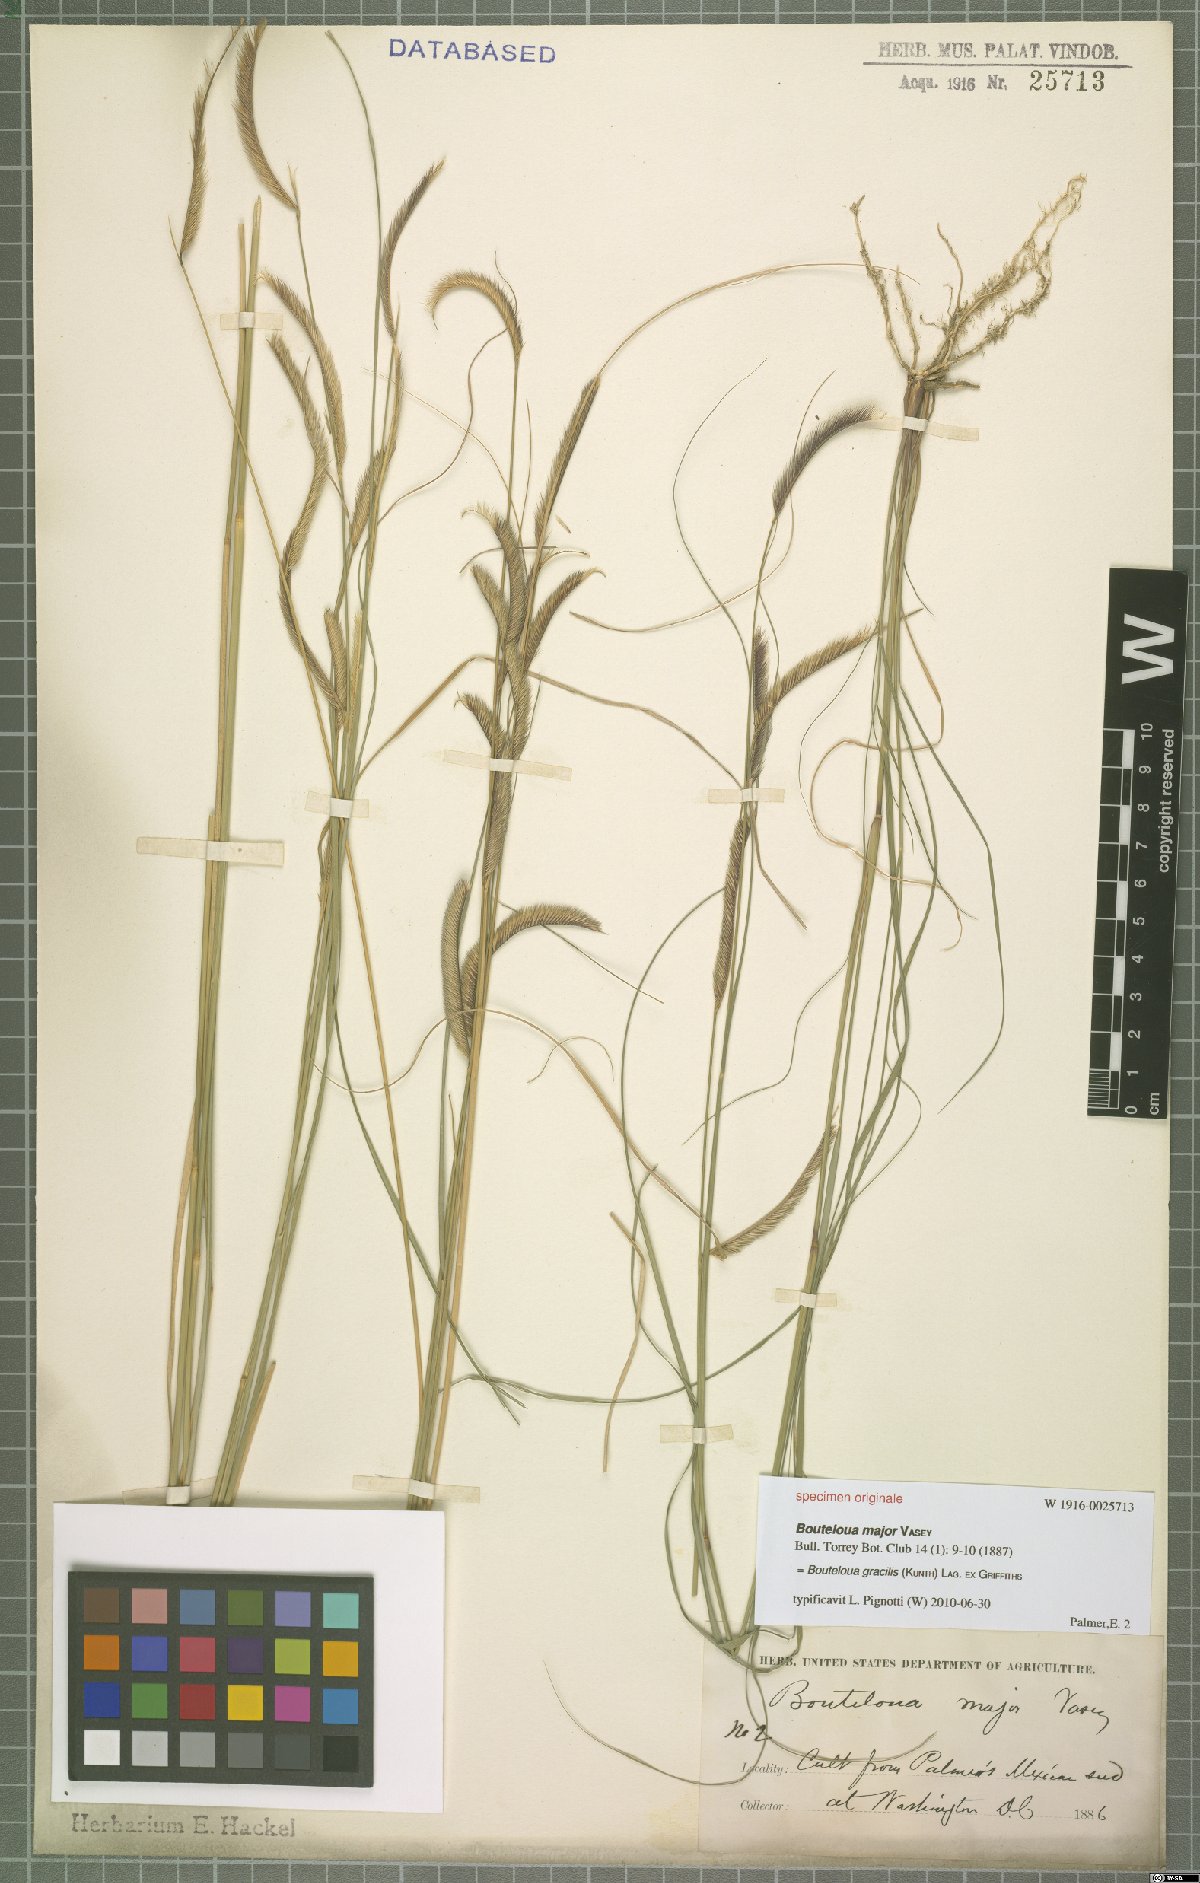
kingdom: Plantae
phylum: Tracheophyta
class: Liliopsida
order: Poales
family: Poaceae
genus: Bouteloua
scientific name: Bouteloua gracilis
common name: Blue grama
